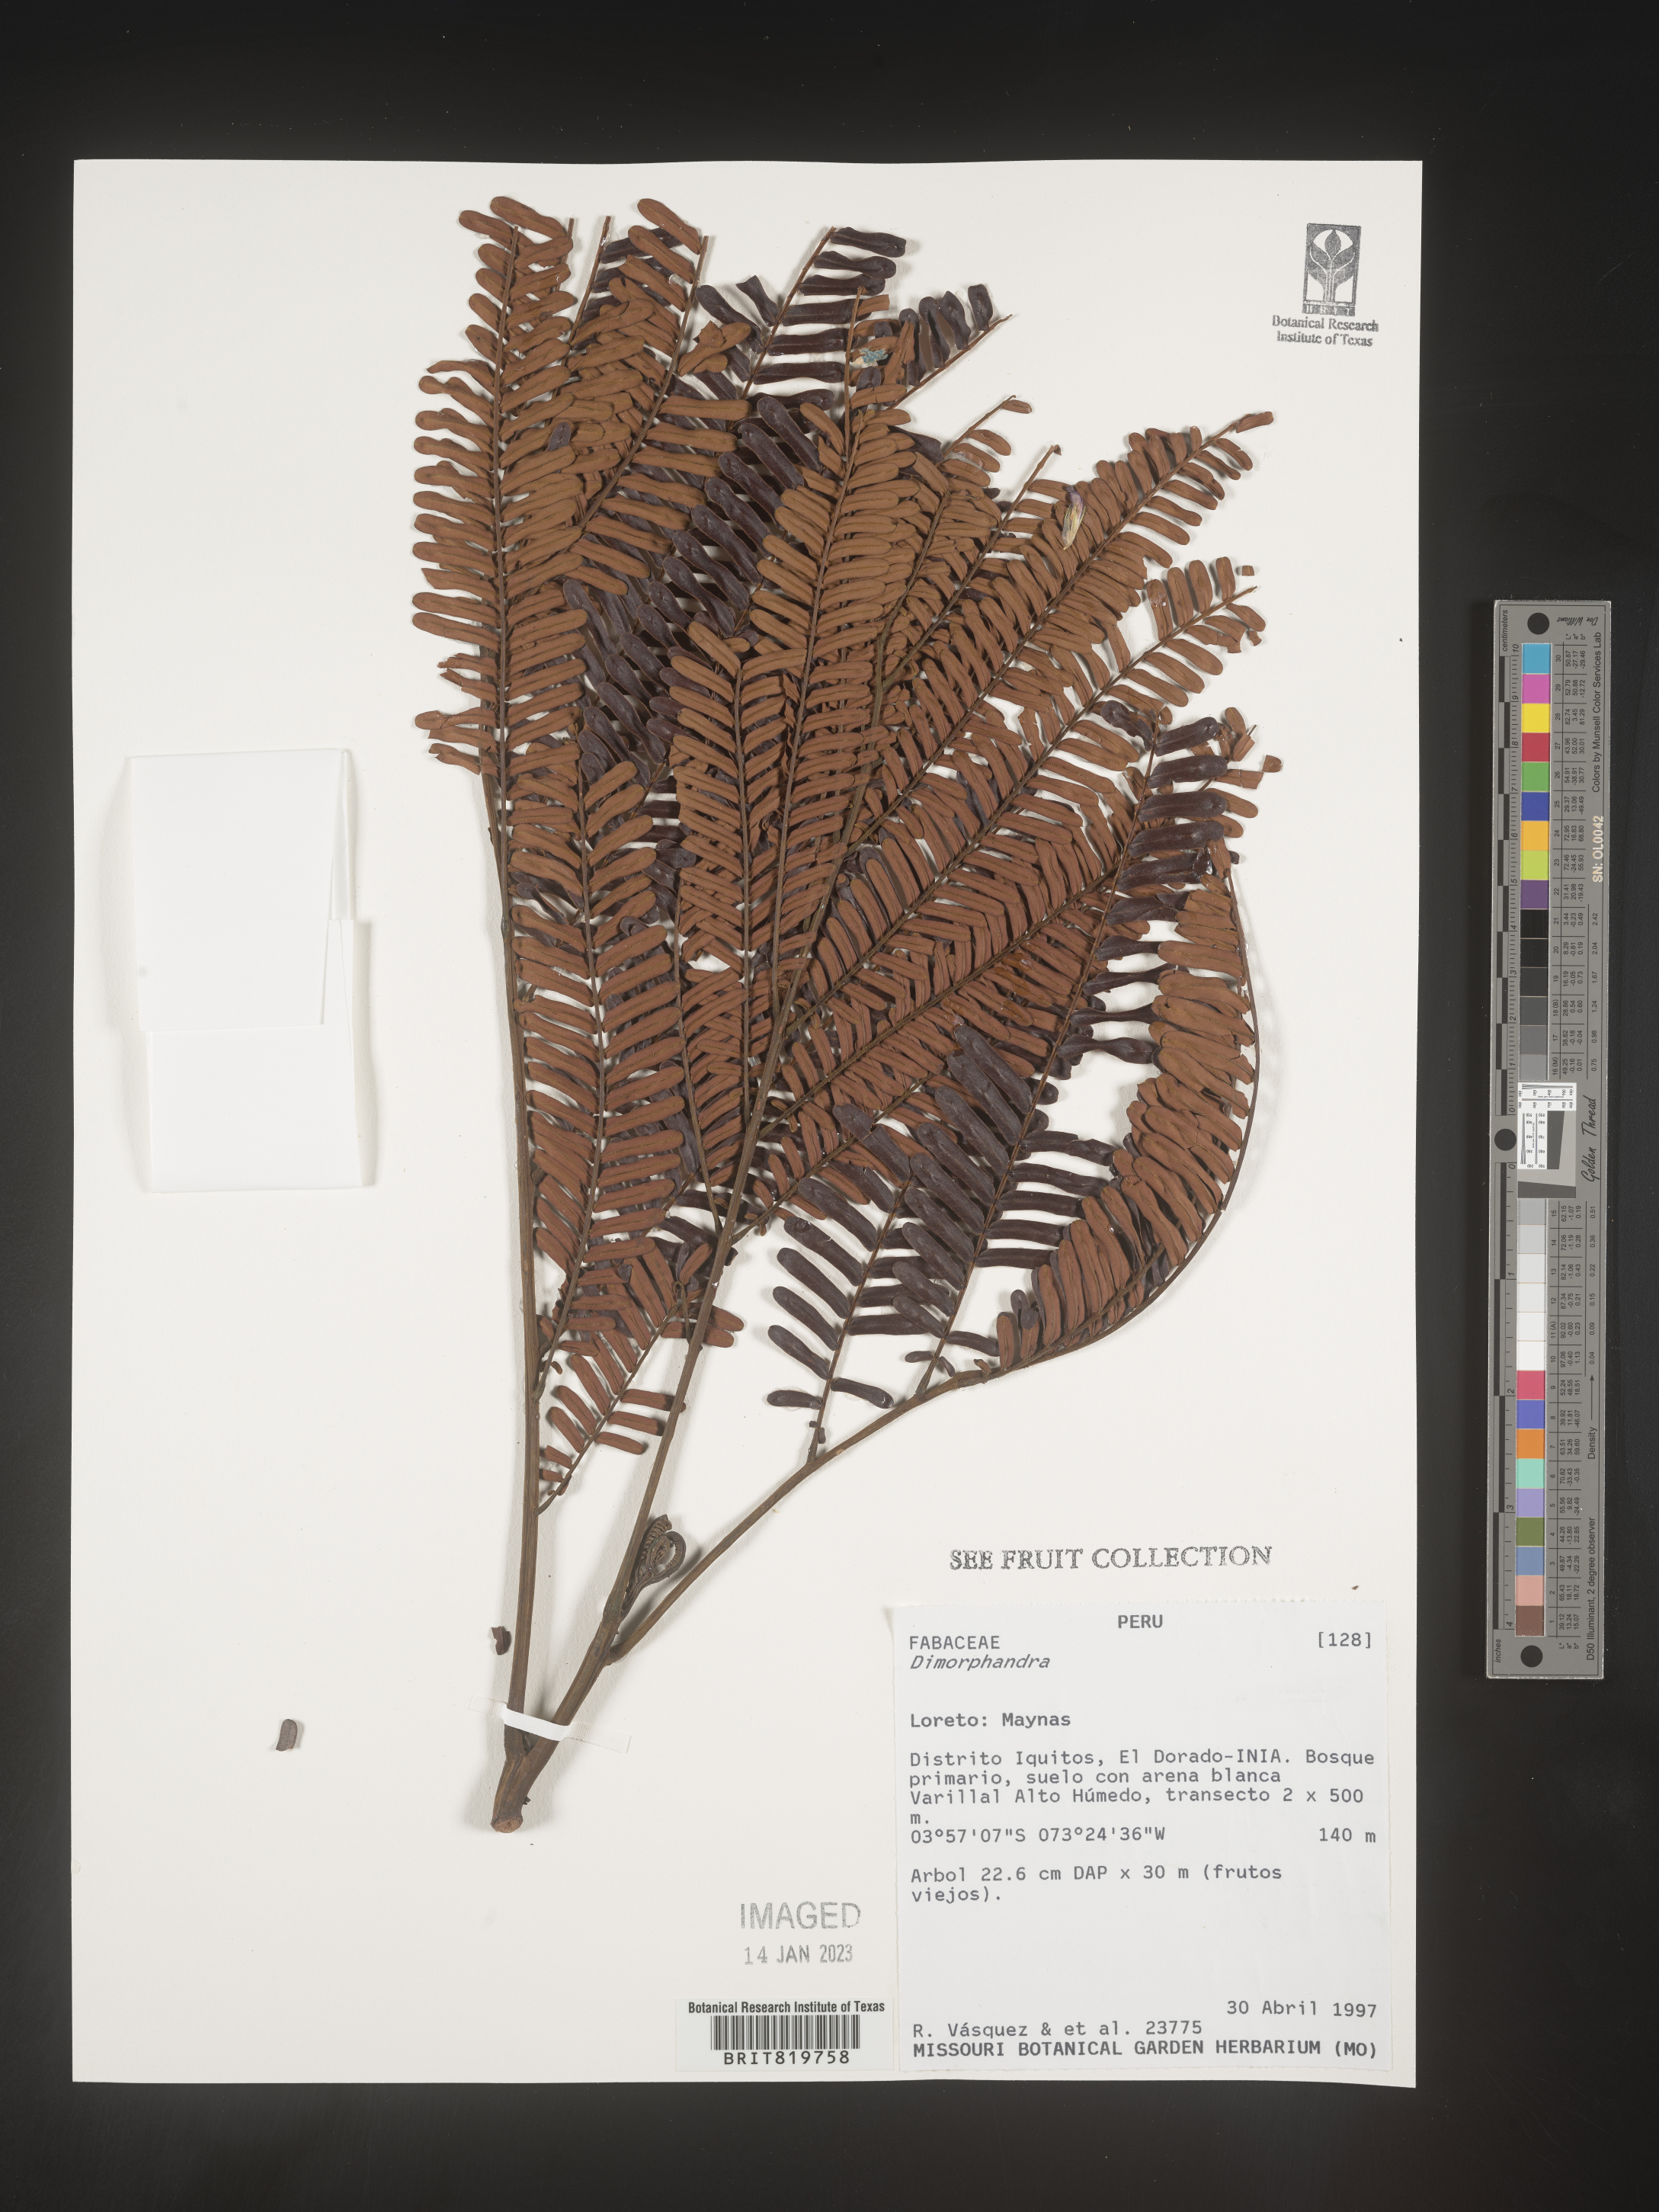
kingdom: Plantae
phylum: Tracheophyta
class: Magnoliopsida
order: Fabales
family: Fabaceae
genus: Dimorphandra
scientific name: Dimorphandra
